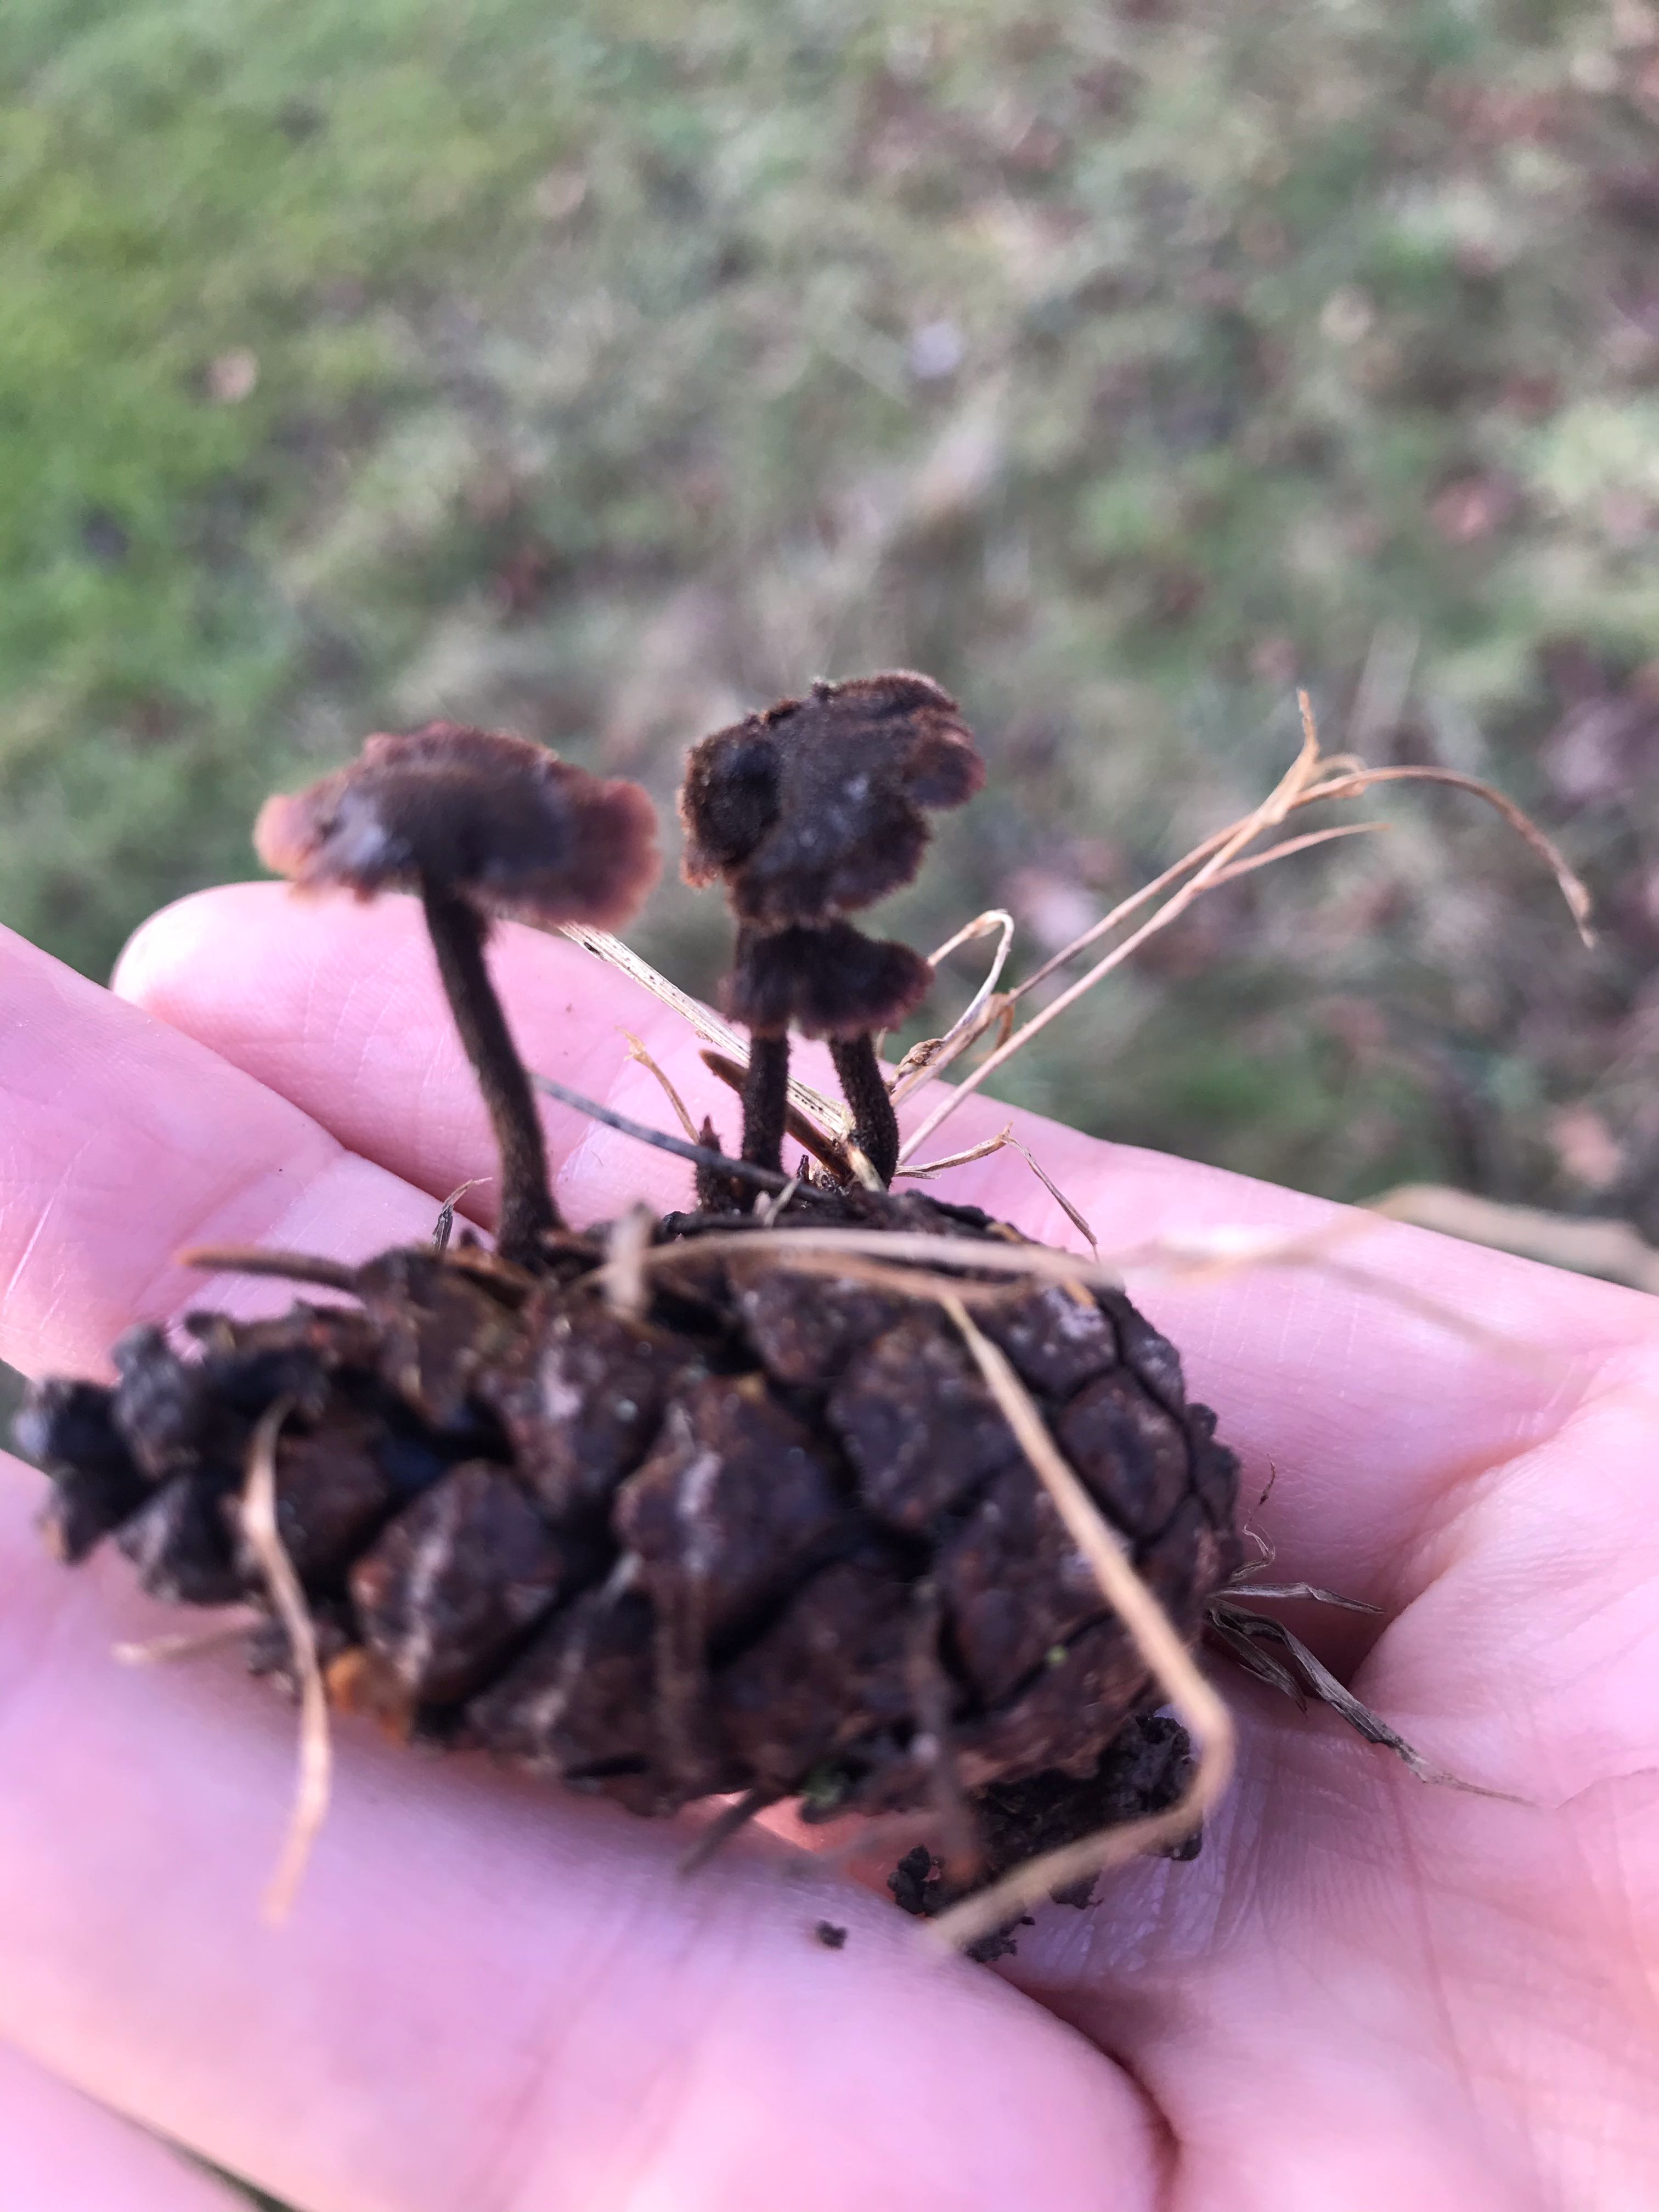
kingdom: Fungi
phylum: Basidiomycota
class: Agaricomycetes
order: Russulales
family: Auriscalpiaceae
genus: Auriscalpium
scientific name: Auriscalpium vulgare
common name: koglepigsvamp
